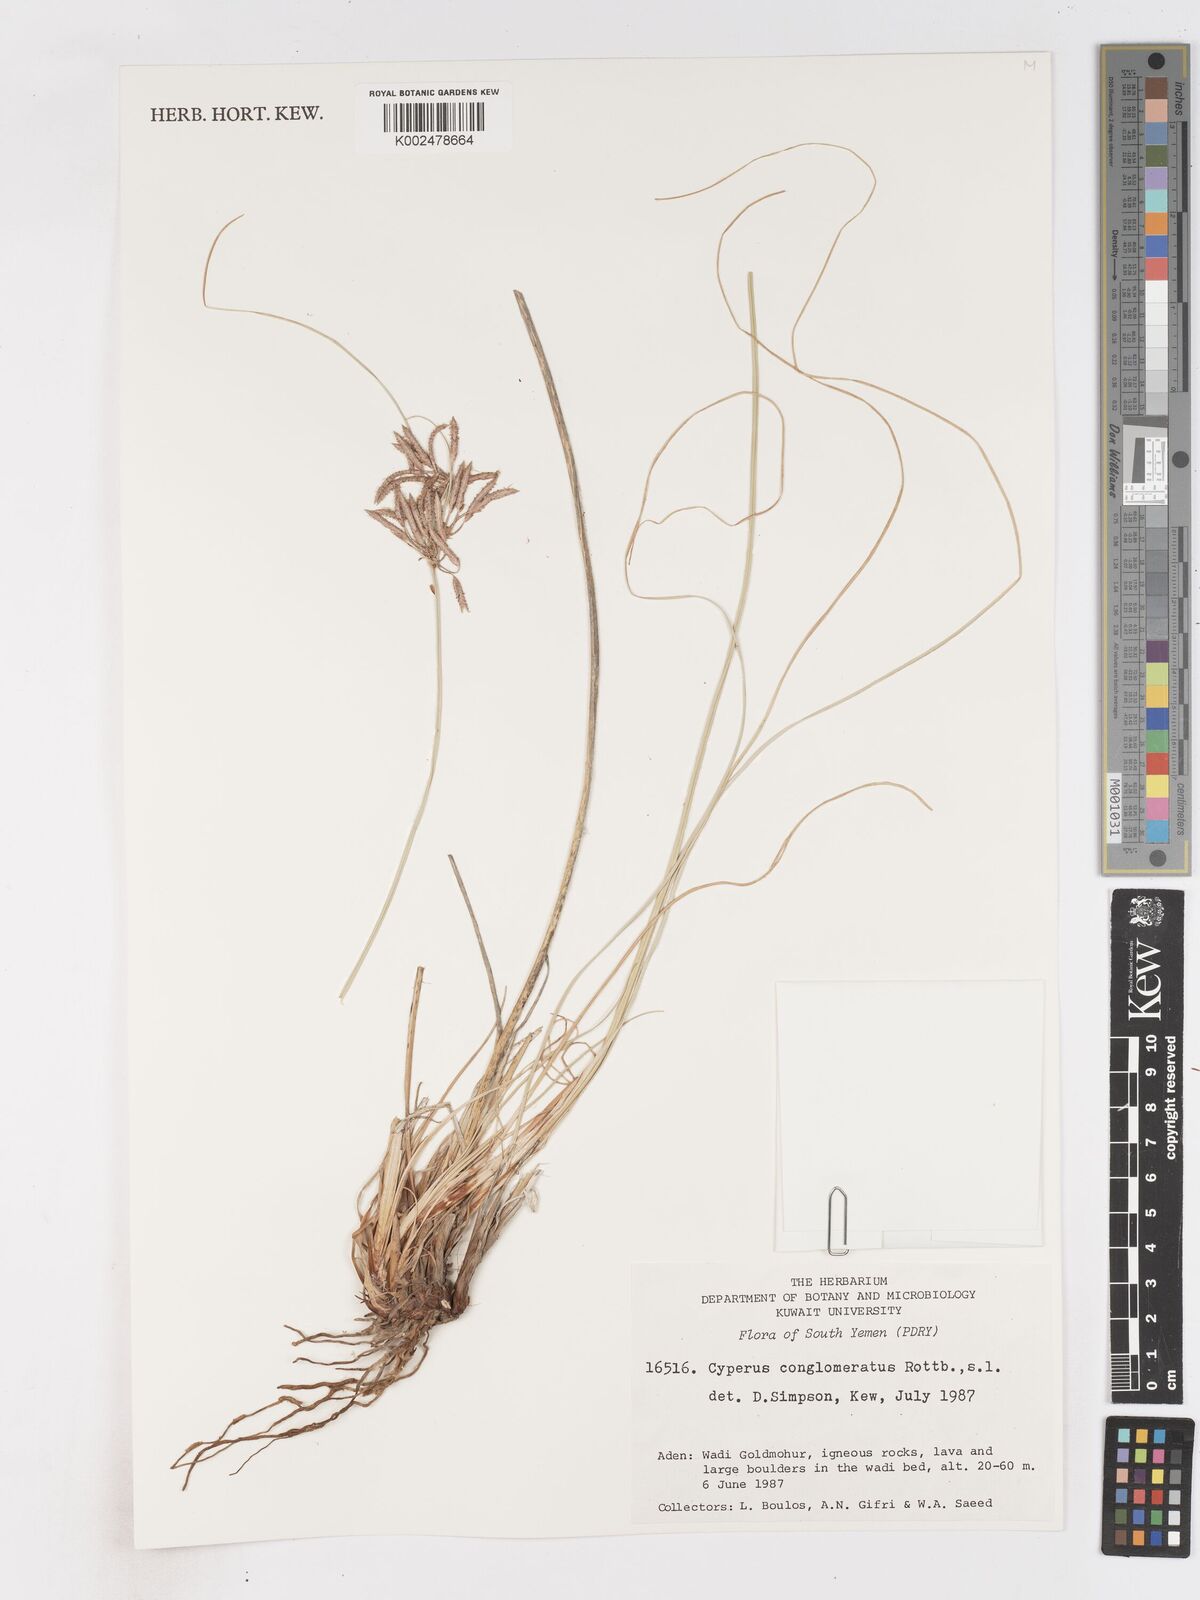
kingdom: Plantae
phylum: Tracheophyta
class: Liliopsida
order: Poales
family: Cyperaceae
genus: Cyperus
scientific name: Cyperus conglomeratus
